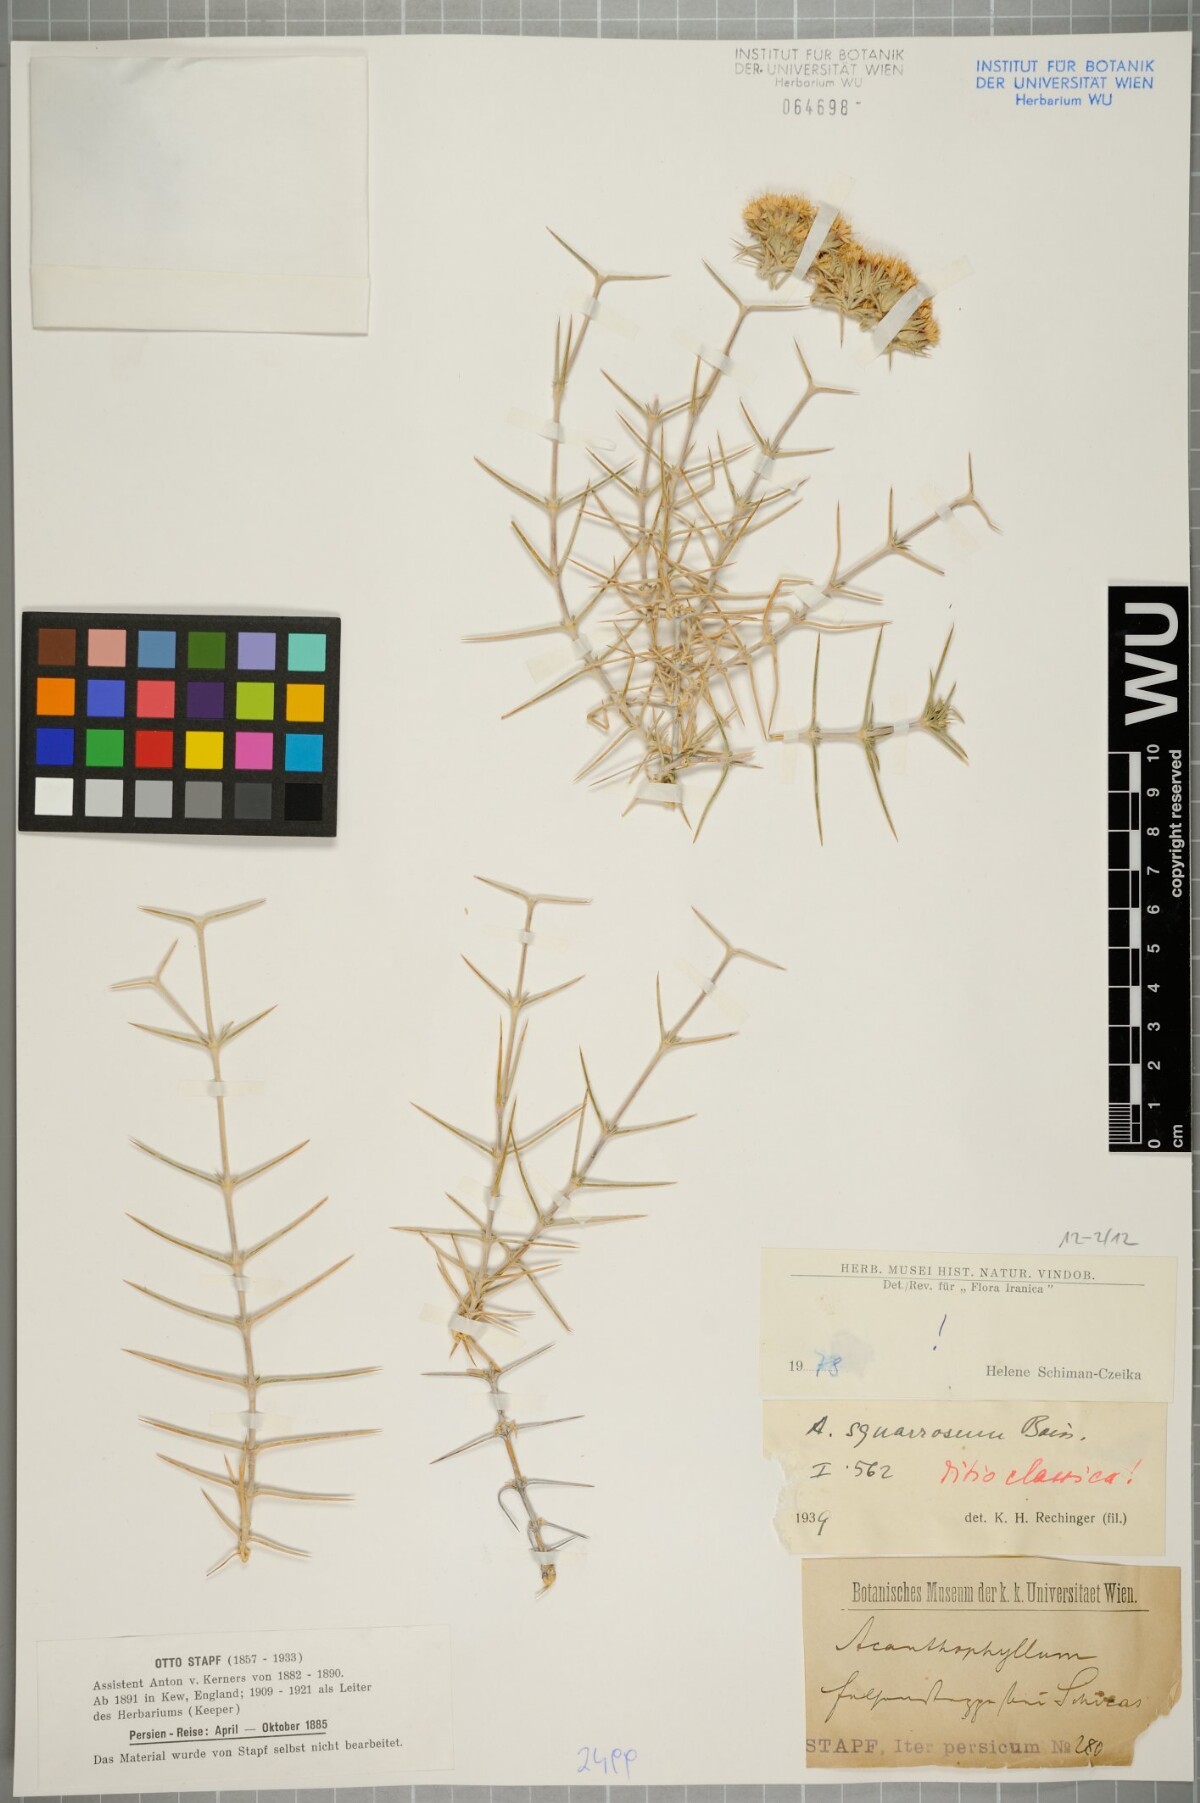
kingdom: Plantae
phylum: Tracheophyta
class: Magnoliopsida
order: Caryophyllales
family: Caryophyllaceae
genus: Acanthophyllum
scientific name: Acanthophyllum squarrosum
